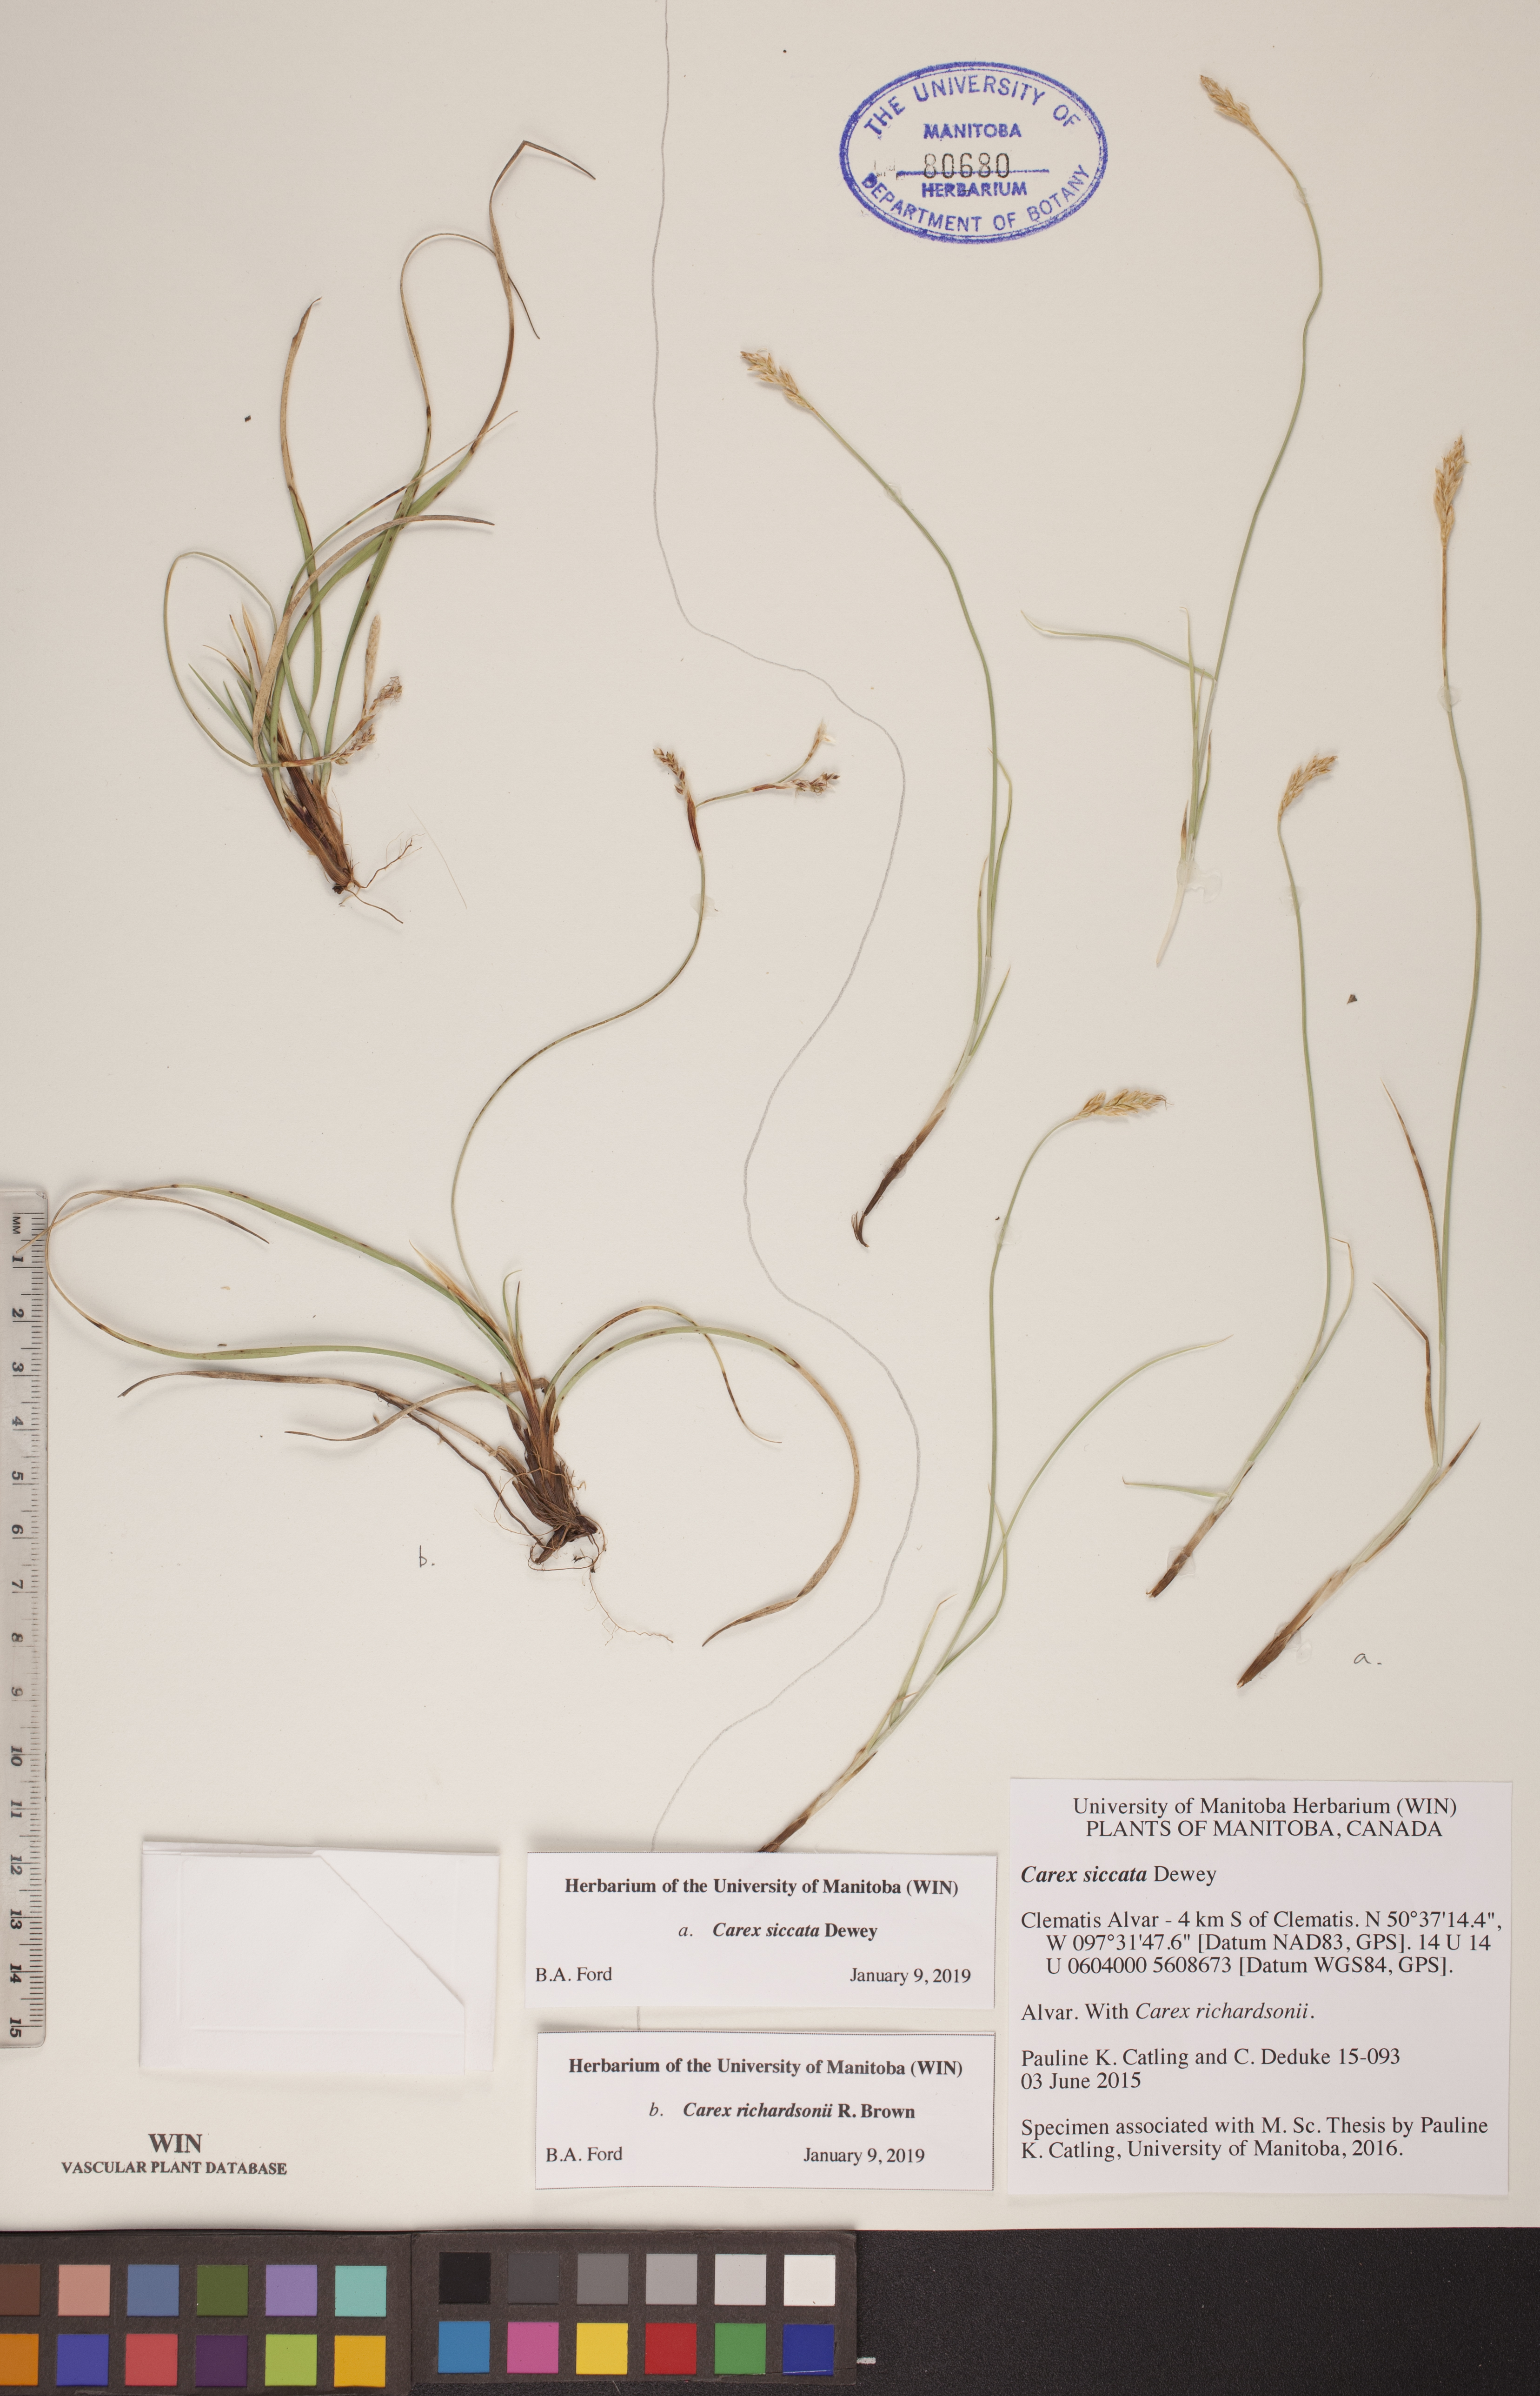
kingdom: Plantae
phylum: Tracheophyta
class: Liliopsida
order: Poales
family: Cyperaceae
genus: Carex
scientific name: Carex siccata
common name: Dry sedge
